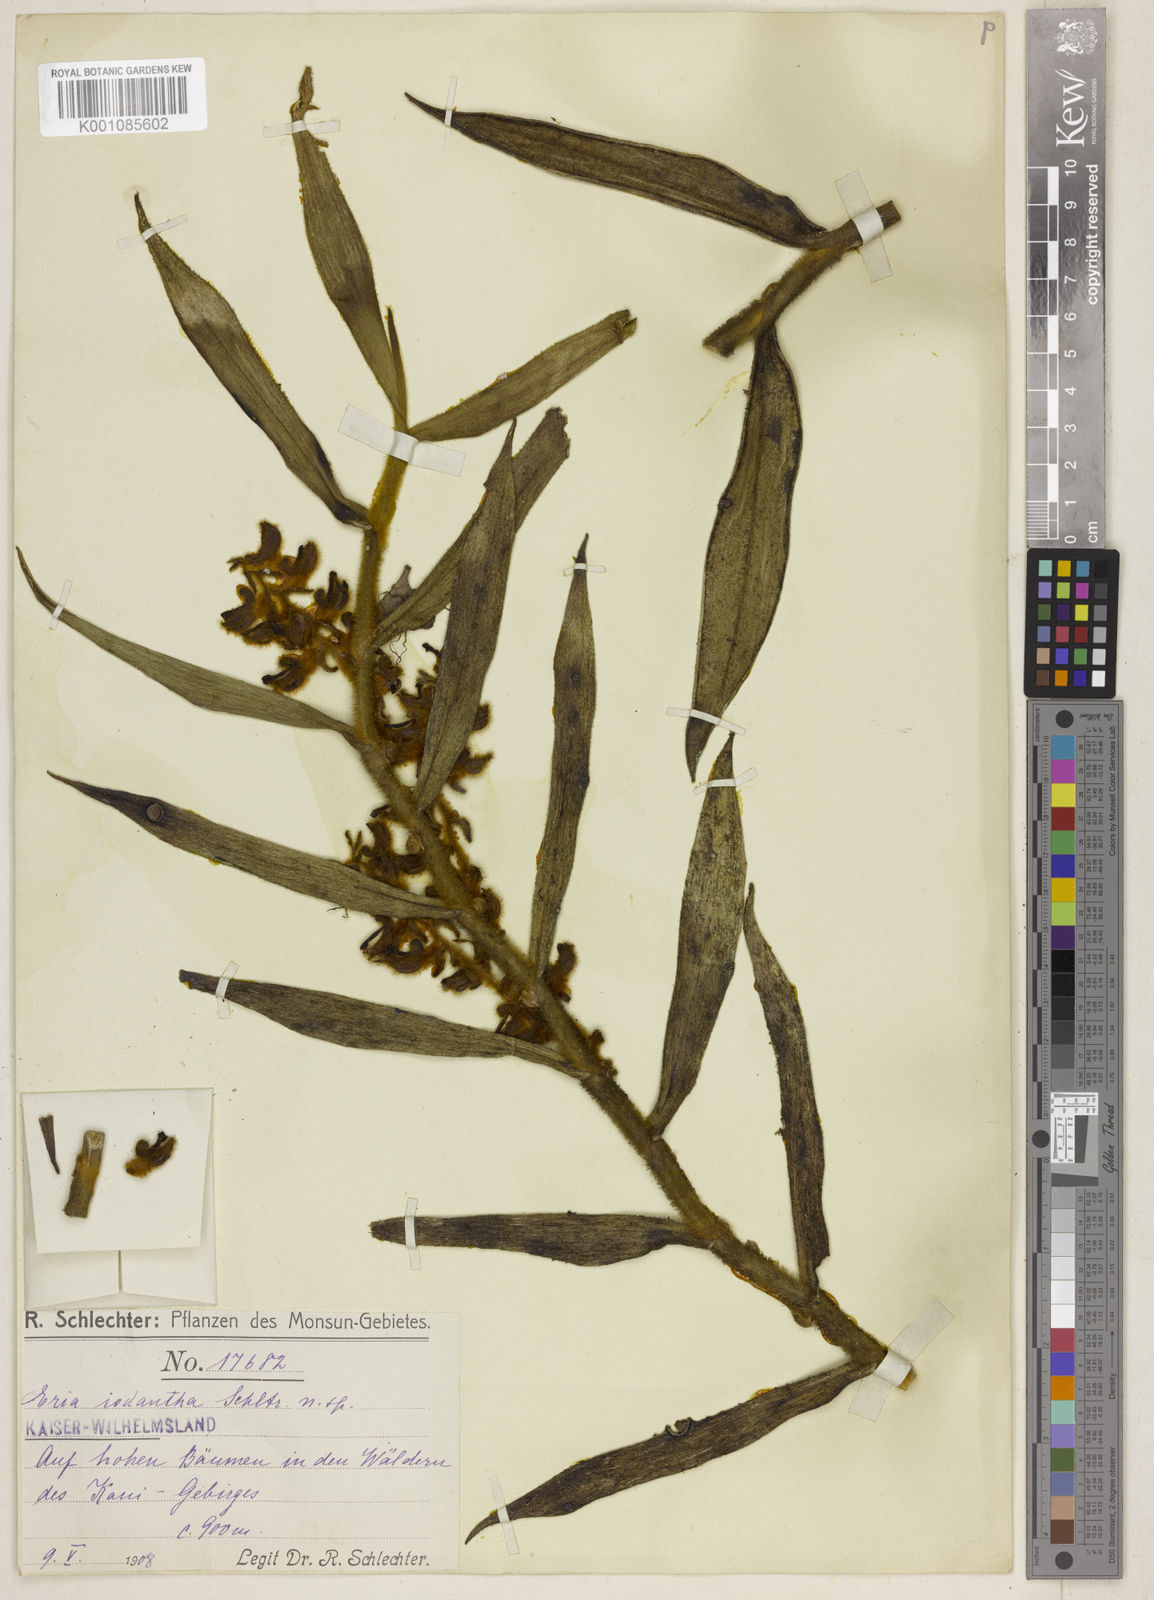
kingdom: Plantae
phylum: Tracheophyta
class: Liliopsida
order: Asparagales
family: Orchidaceae
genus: Trichotosia
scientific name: Trichotosia iodantha
